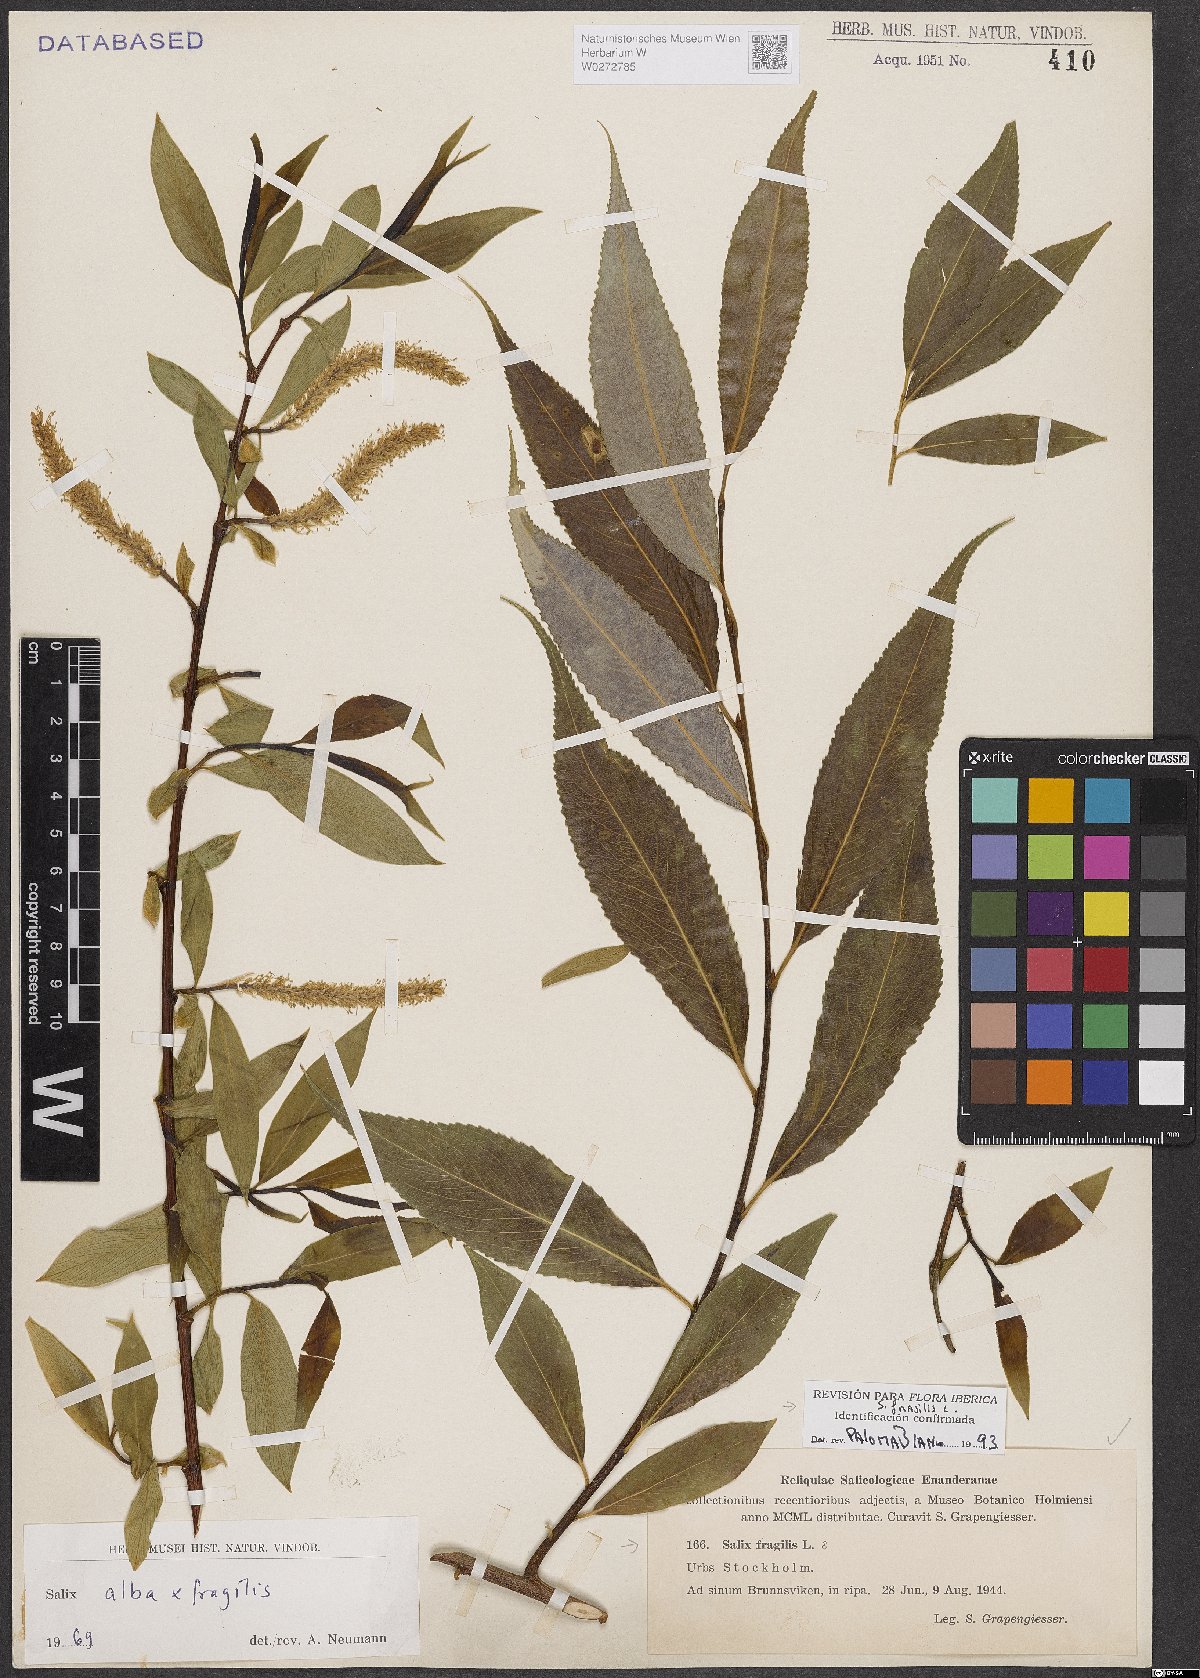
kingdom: Plantae
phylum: Tracheophyta
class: Magnoliopsida
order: Malpighiales
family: Salicaceae
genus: Salix
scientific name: Salix fragilis
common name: Crack willow
